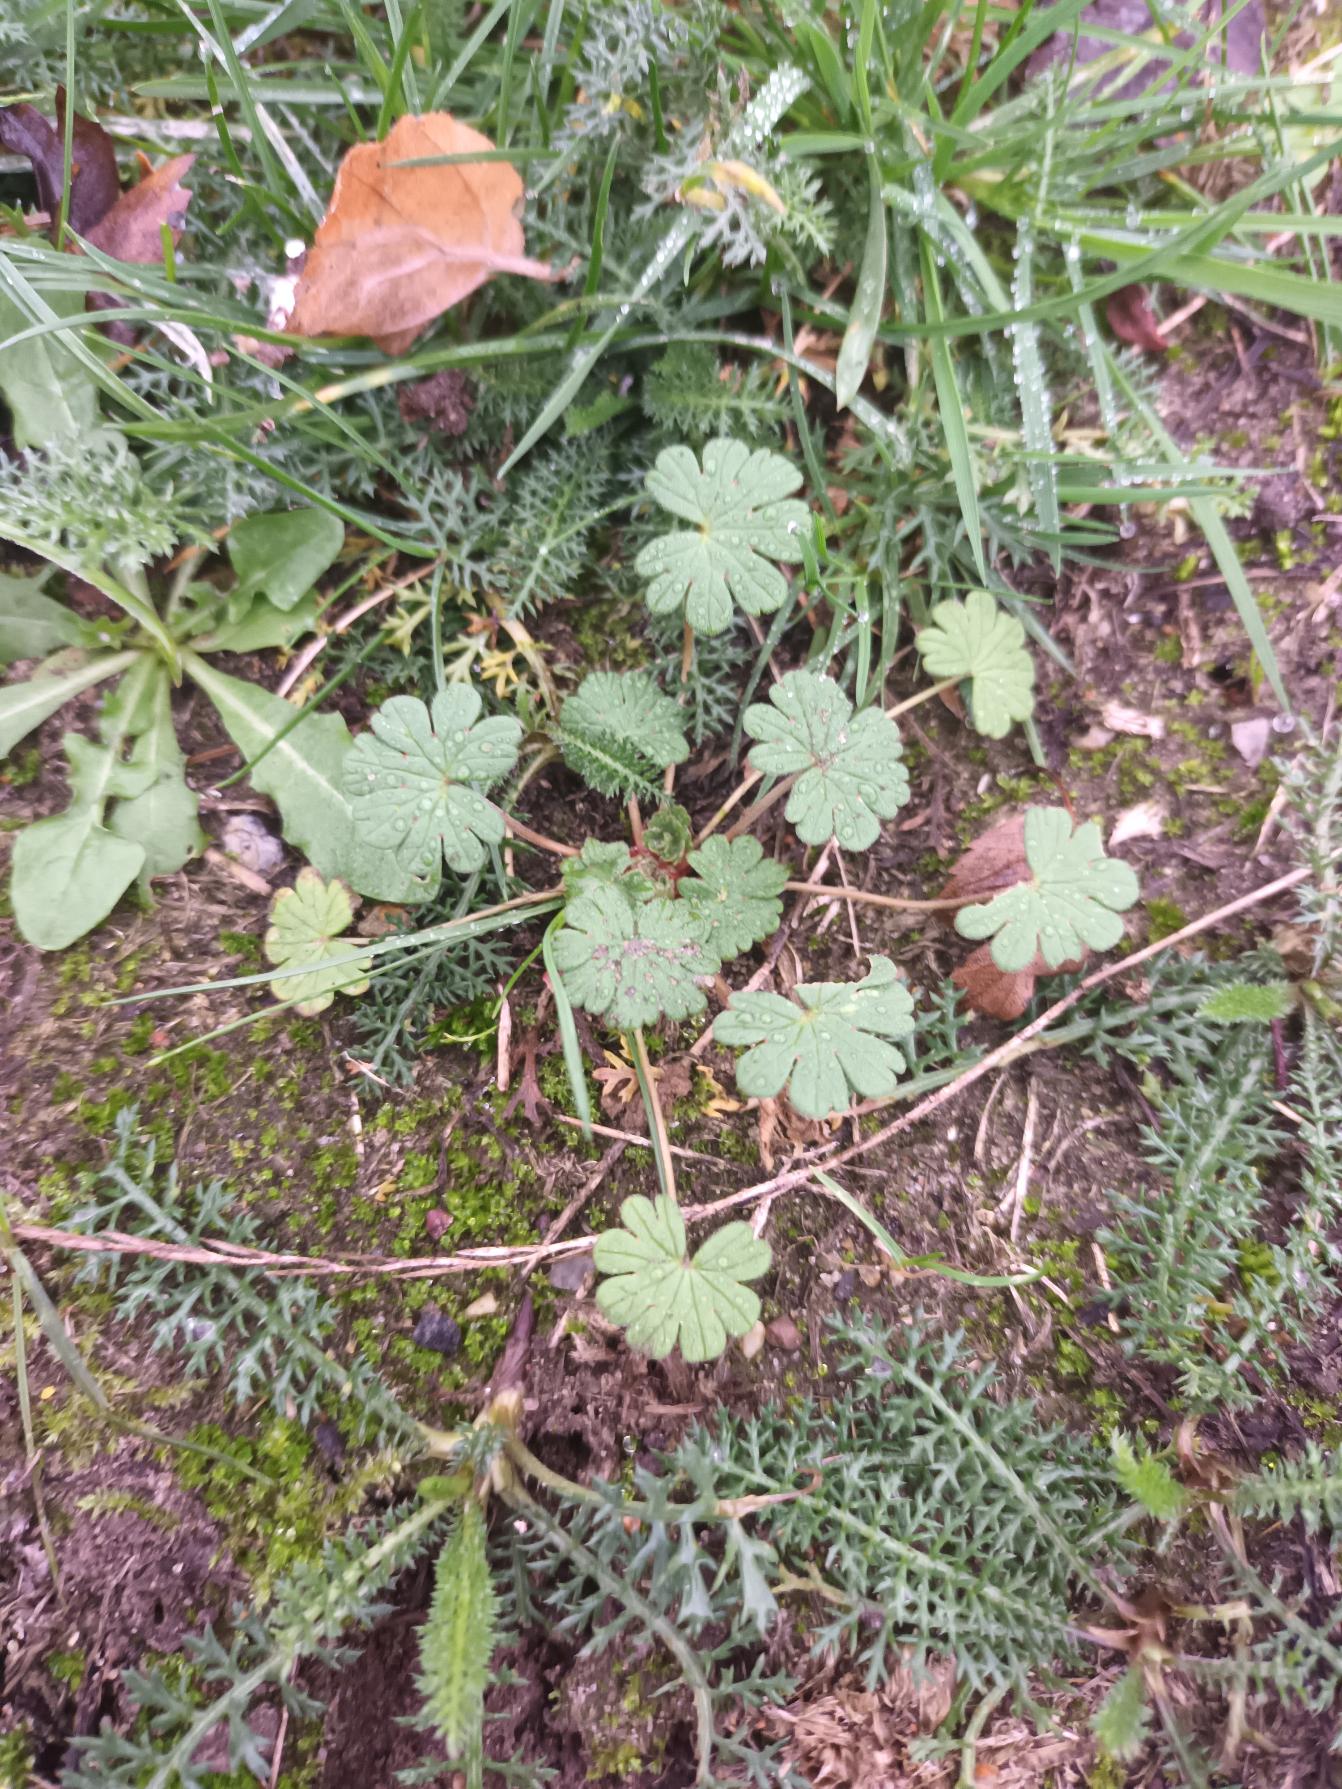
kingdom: Plantae
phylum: Tracheophyta
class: Magnoliopsida
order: Geraniales
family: Geraniaceae
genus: Geranium
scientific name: Geranium pusillum
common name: Liden storkenæb
